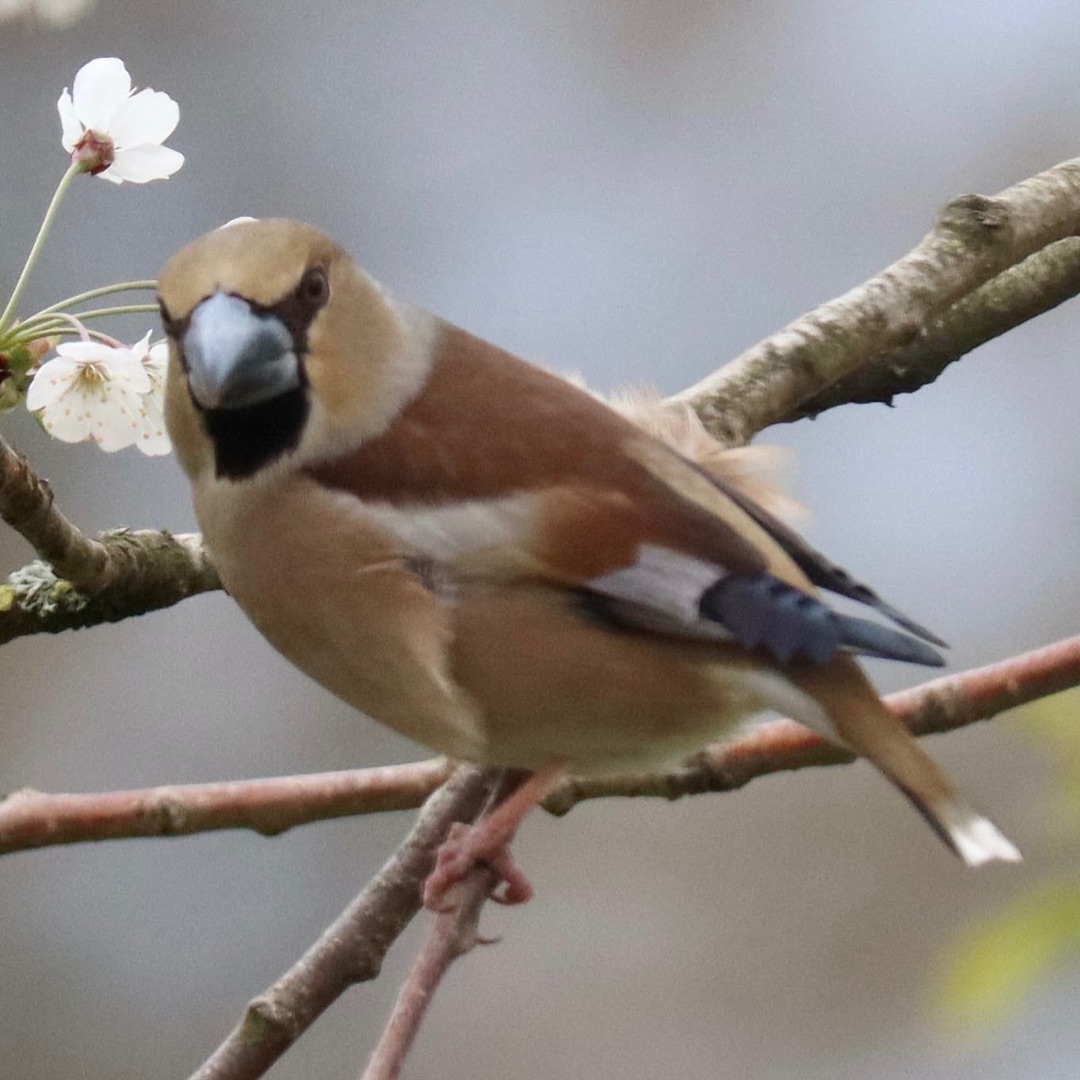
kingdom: Animalia
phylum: Chordata
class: Aves
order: Passeriformes
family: Fringillidae
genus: Coccothraustes
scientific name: Coccothraustes coccothraustes
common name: Kernebider
